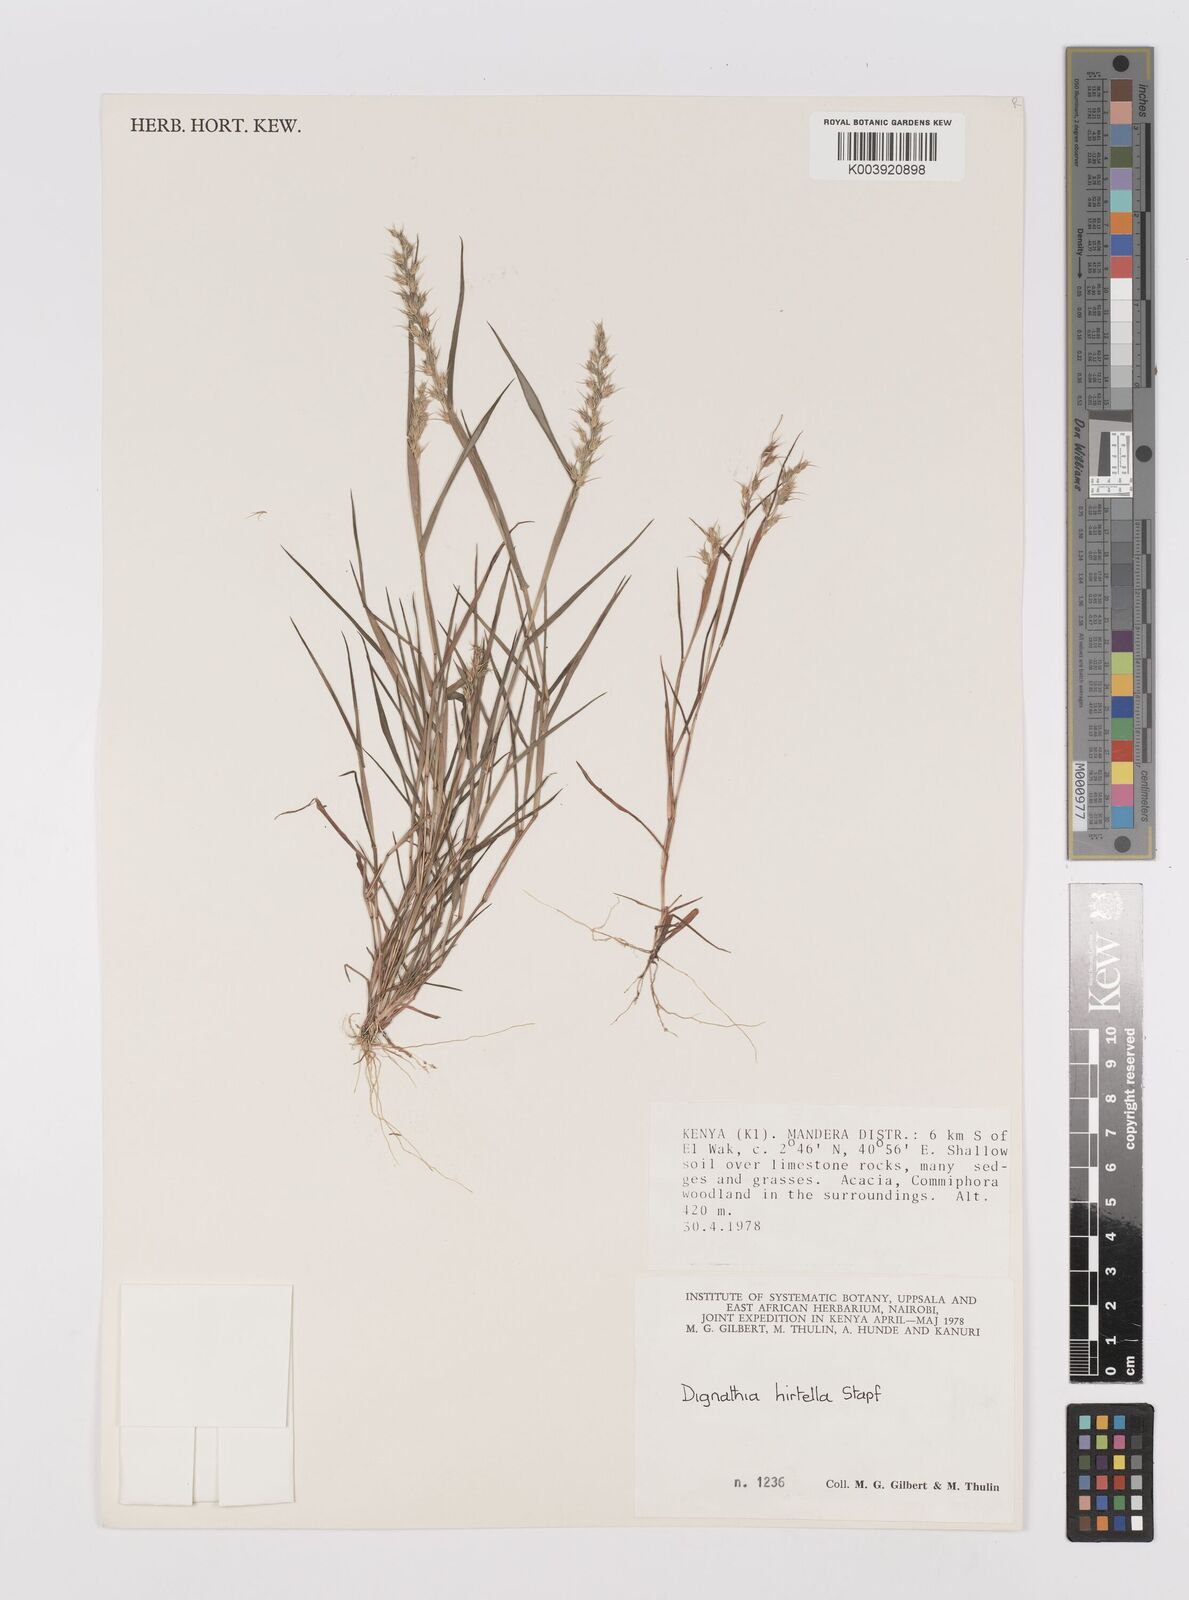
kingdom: Plantae
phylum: Tracheophyta
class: Liliopsida
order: Poales
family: Poaceae
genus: Dignathia
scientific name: Dignathia hirtella
